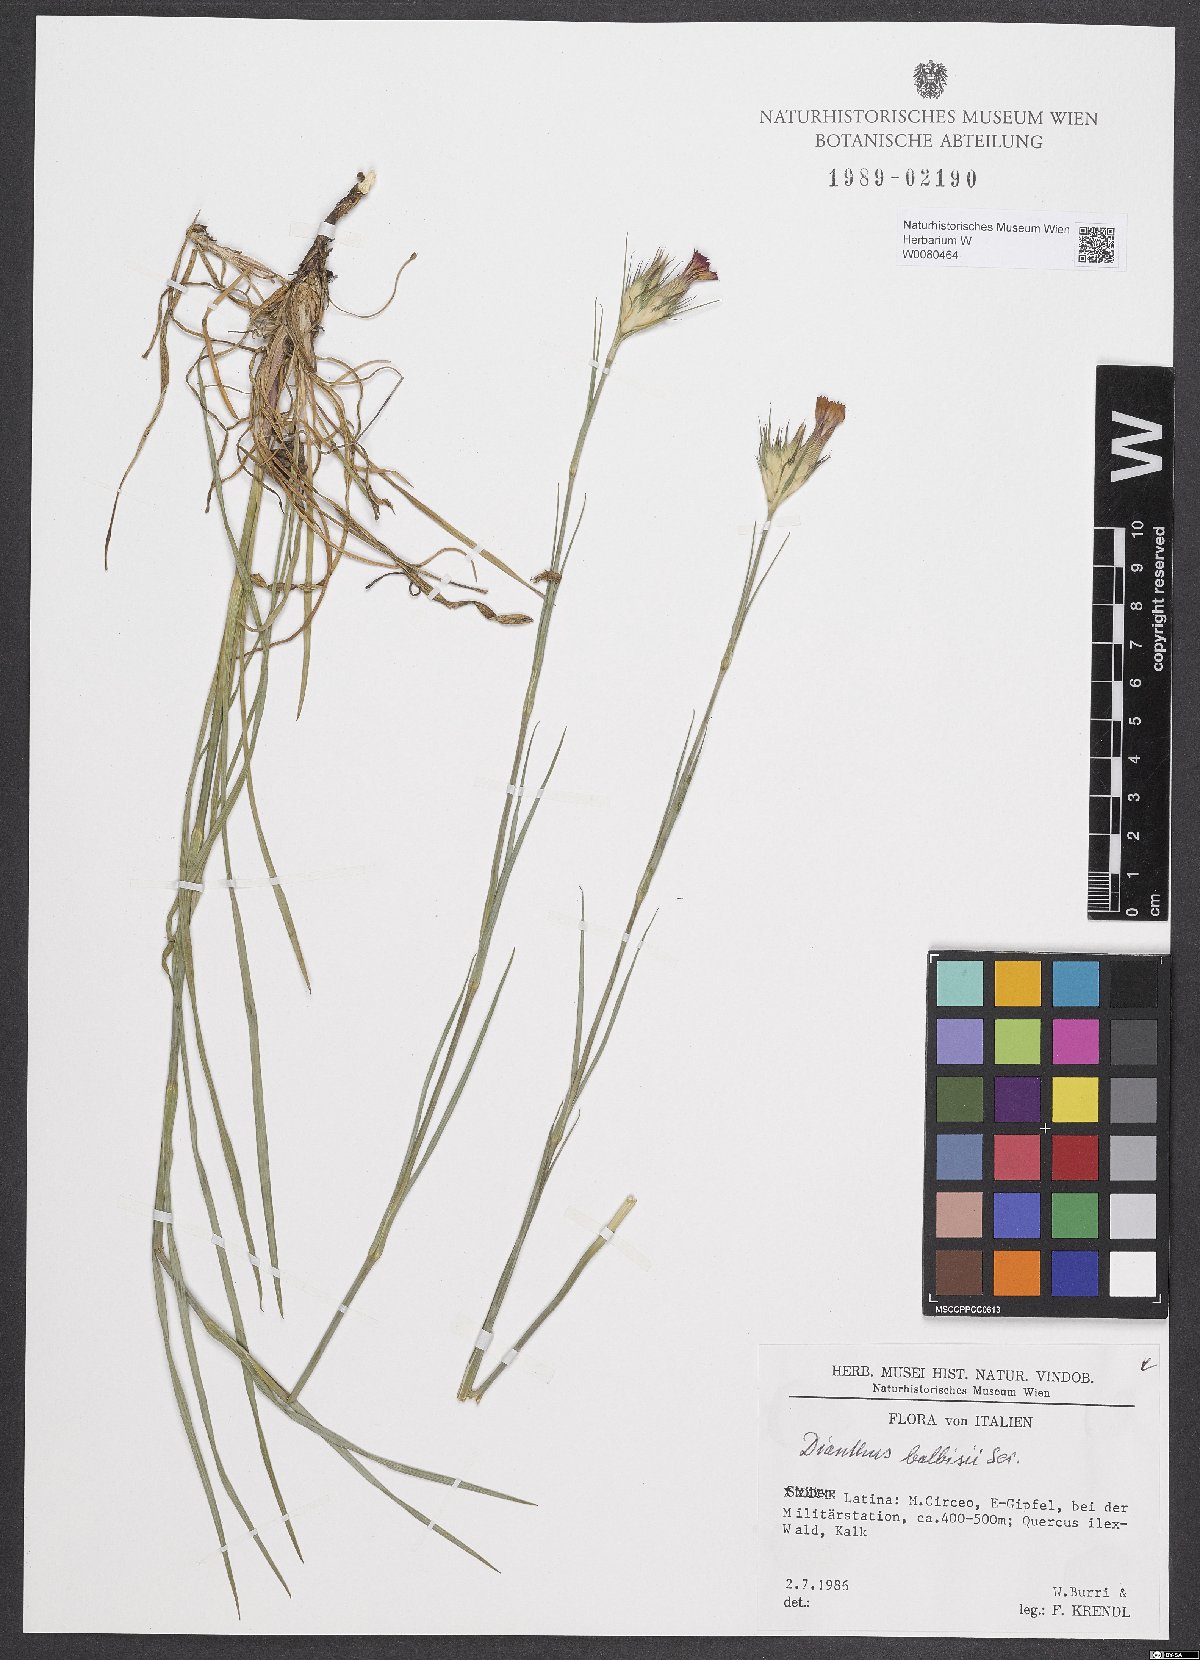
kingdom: Plantae
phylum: Tracheophyta
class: Magnoliopsida
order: Caryophyllales
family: Caryophyllaceae
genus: Dianthus
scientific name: Dianthus balbisii
